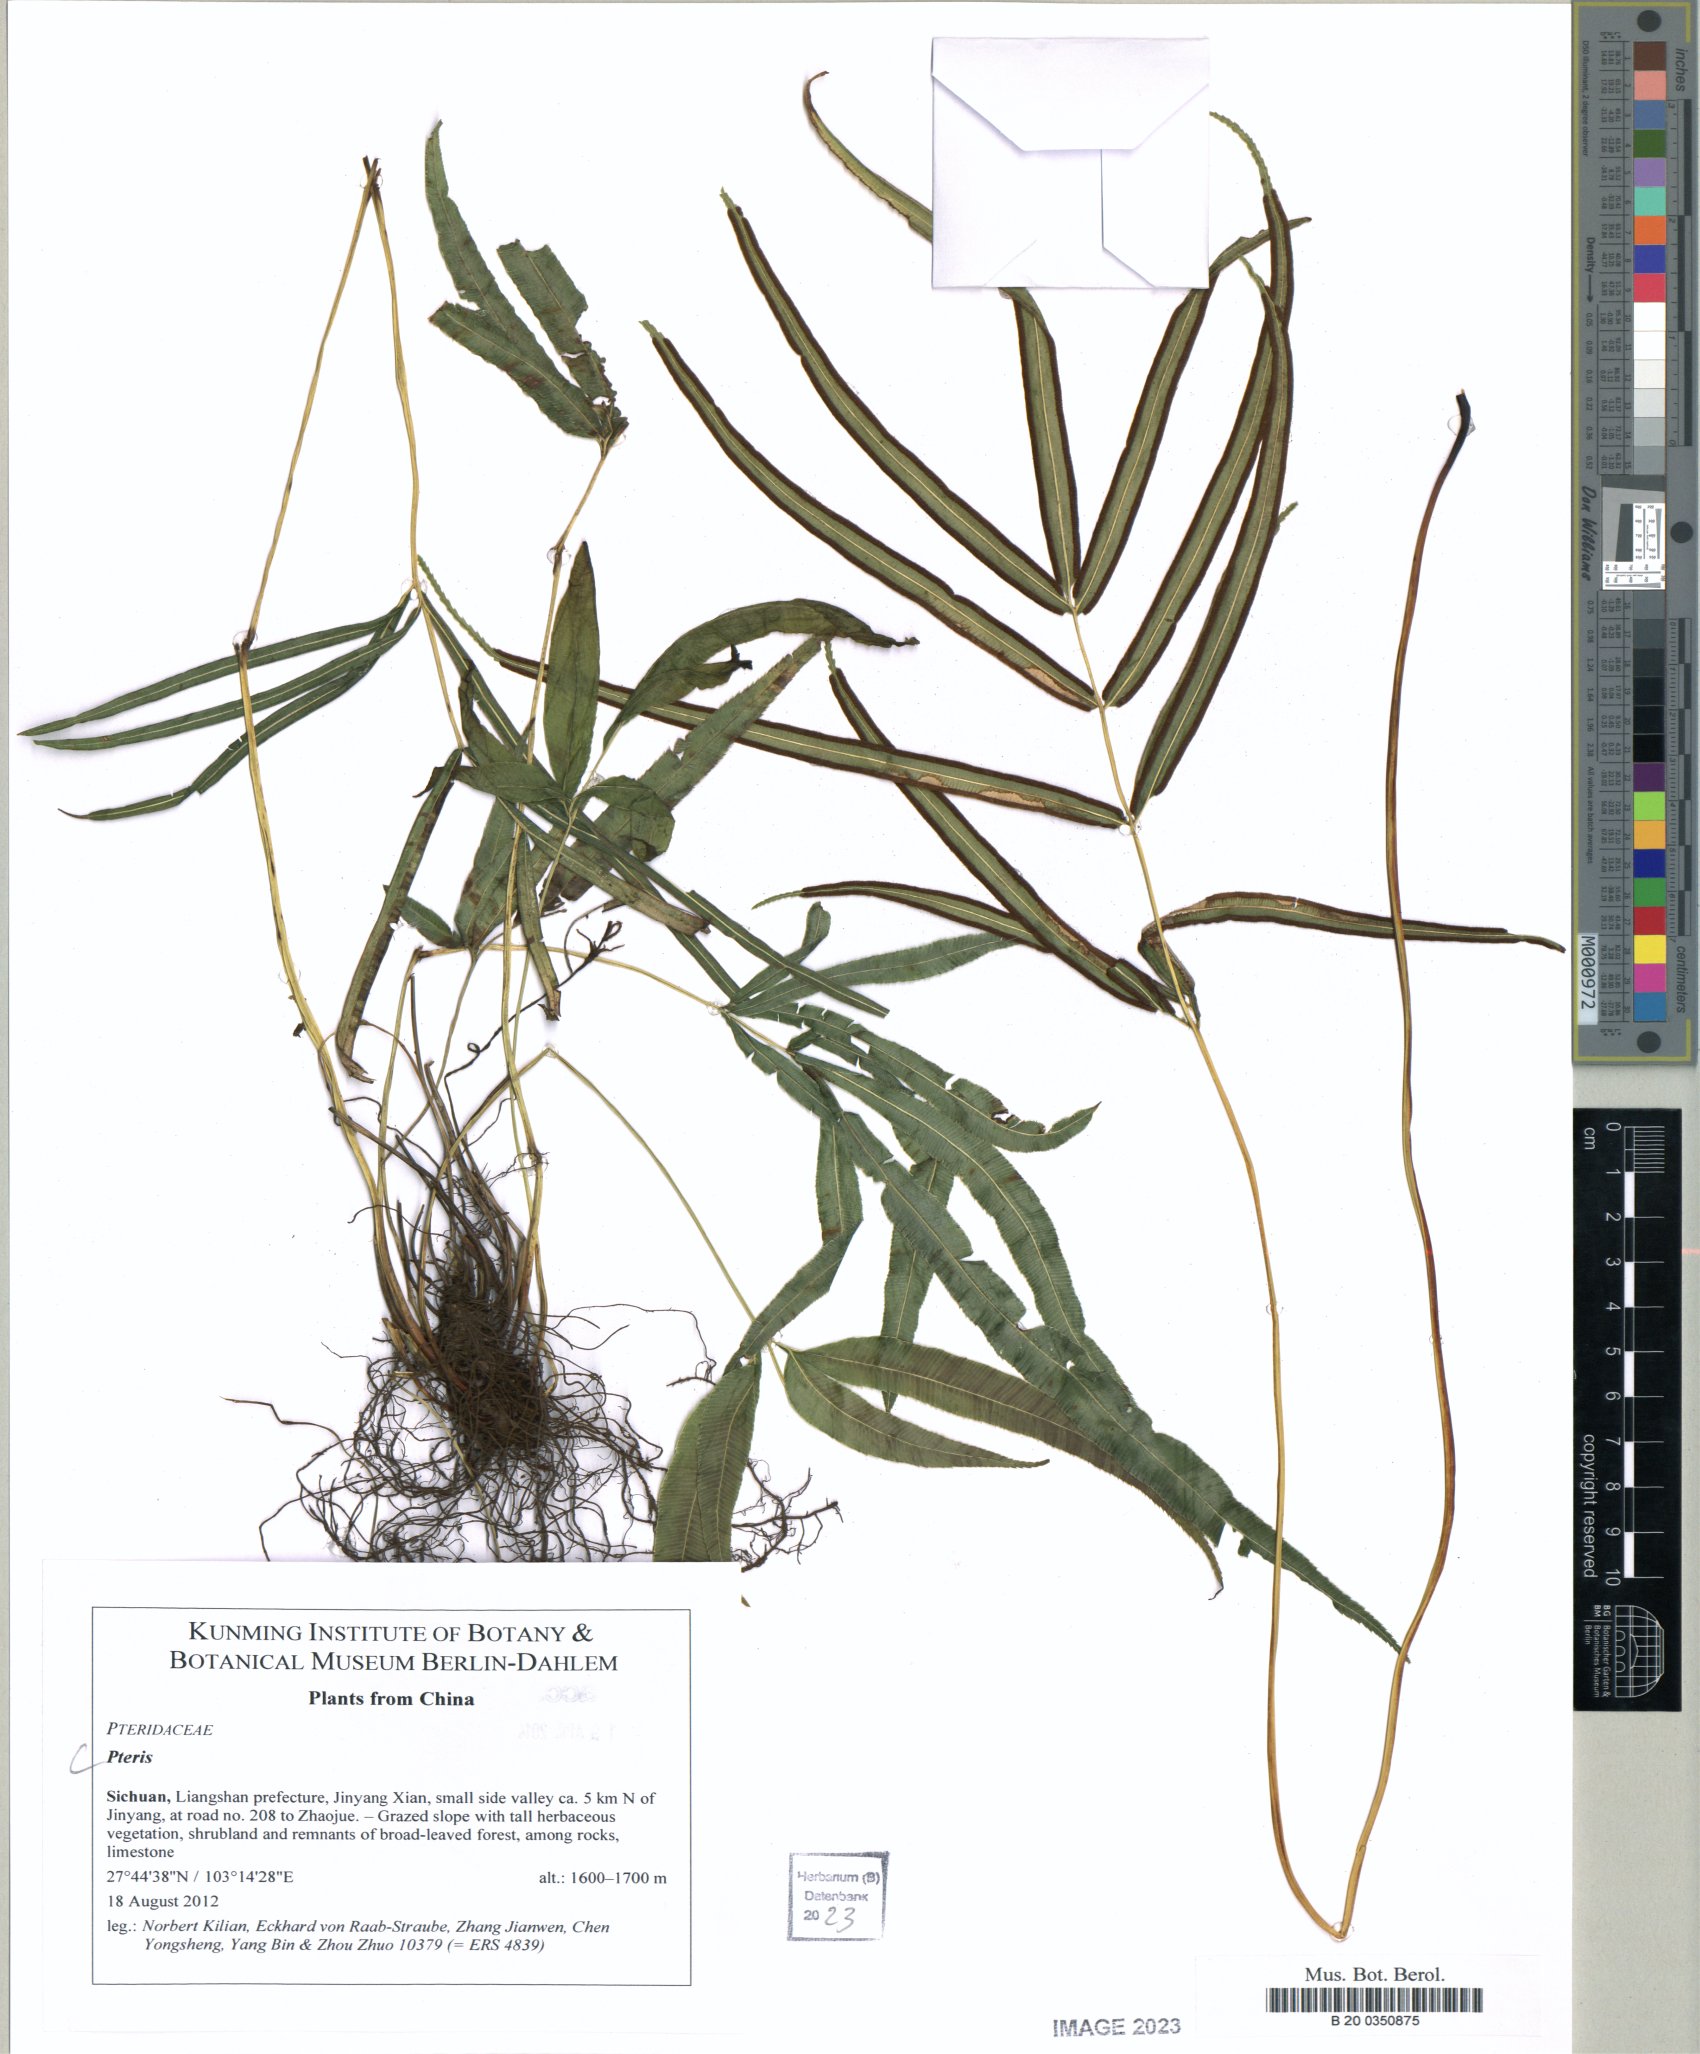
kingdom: Plantae
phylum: Tracheophyta
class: Polypodiopsida
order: Polypodiales
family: Pteridaceae
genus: Pteris
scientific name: Pteris
